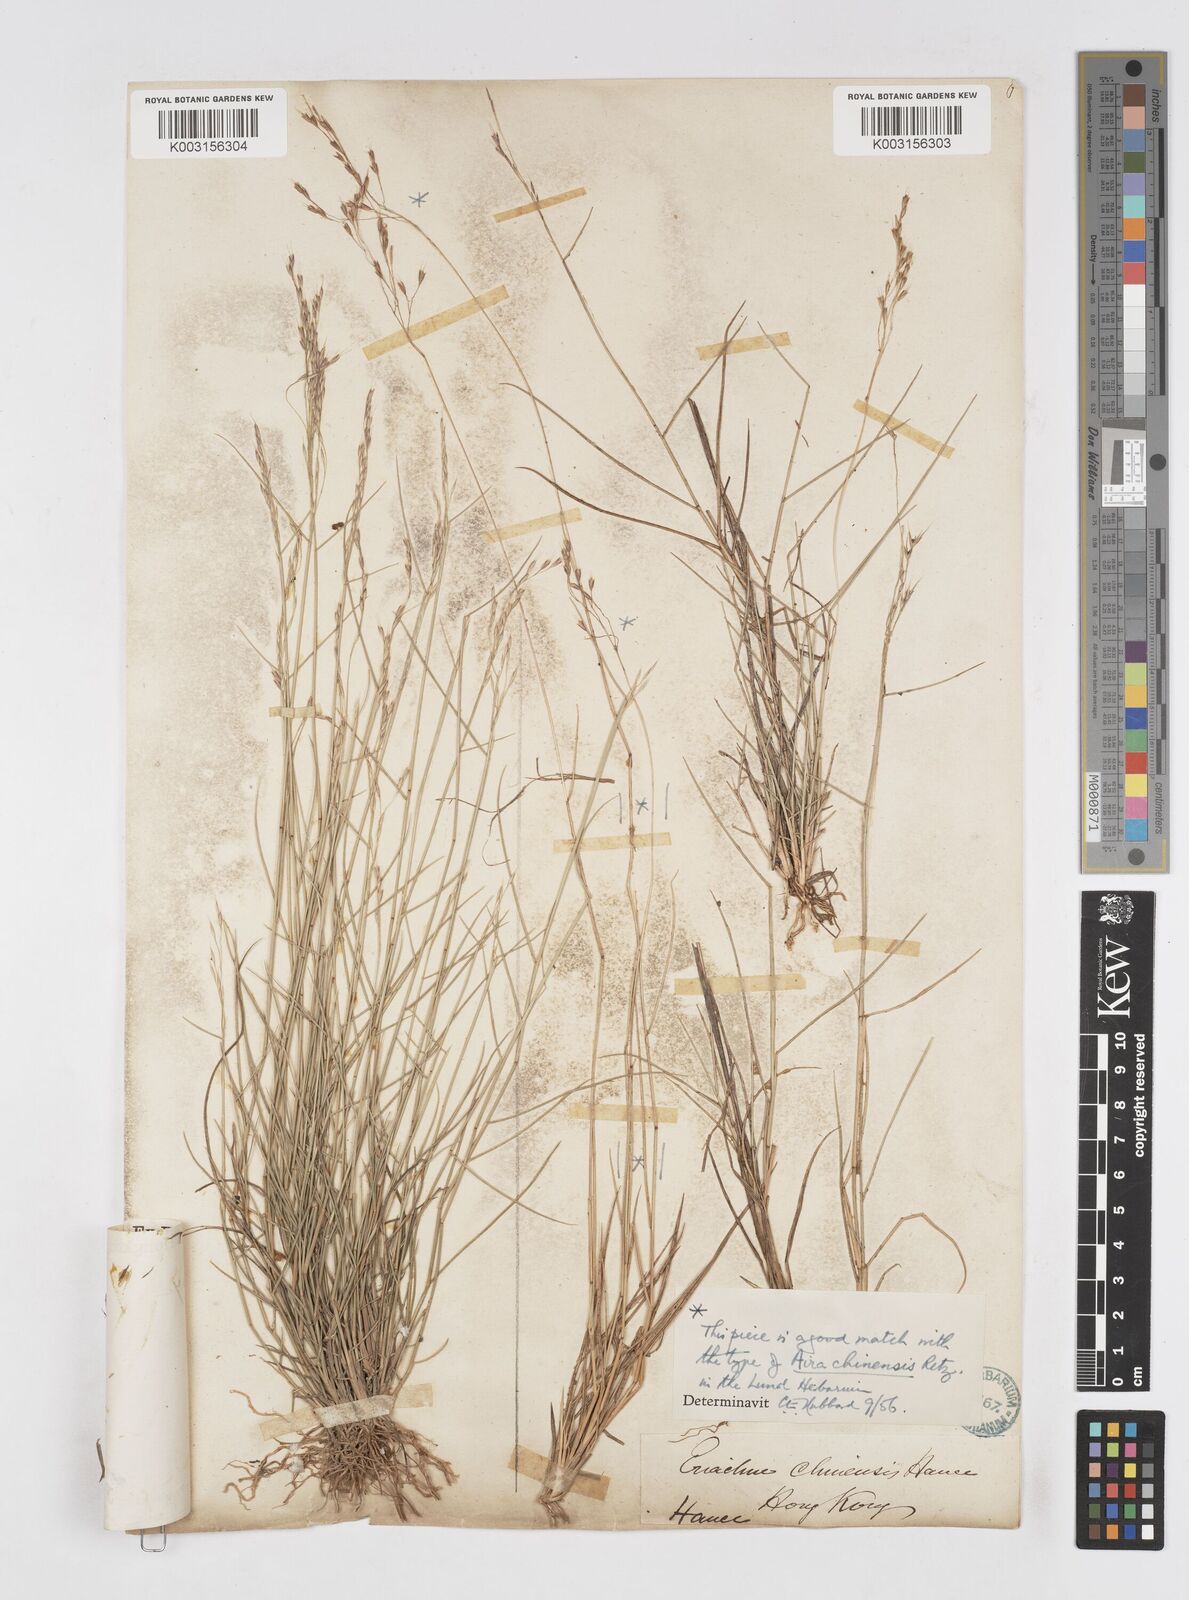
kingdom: Plantae
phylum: Tracheophyta
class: Liliopsida
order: Poales
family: Poaceae
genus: Eriachne
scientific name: Eriachne pallescens
